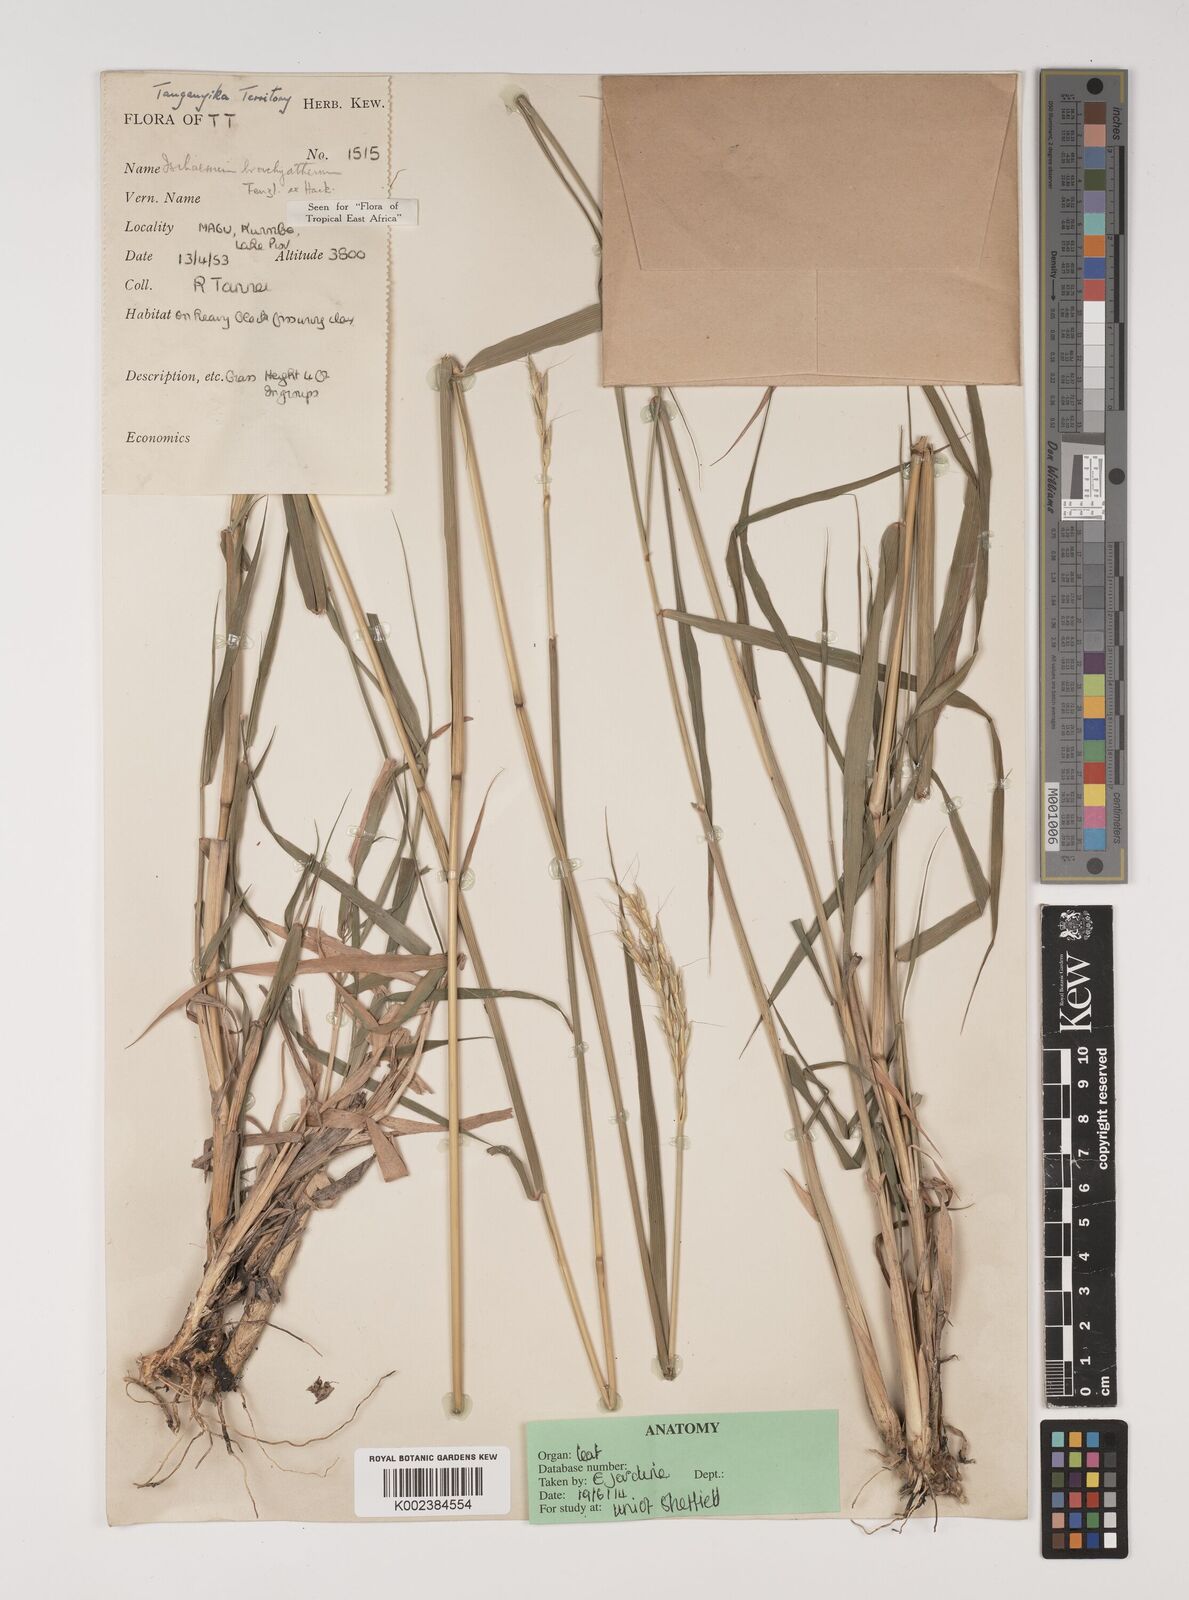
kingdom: Plantae
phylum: Tracheophyta
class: Liliopsida
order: Poales
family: Poaceae
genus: Ischaemum
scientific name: Ischaemum afrum
